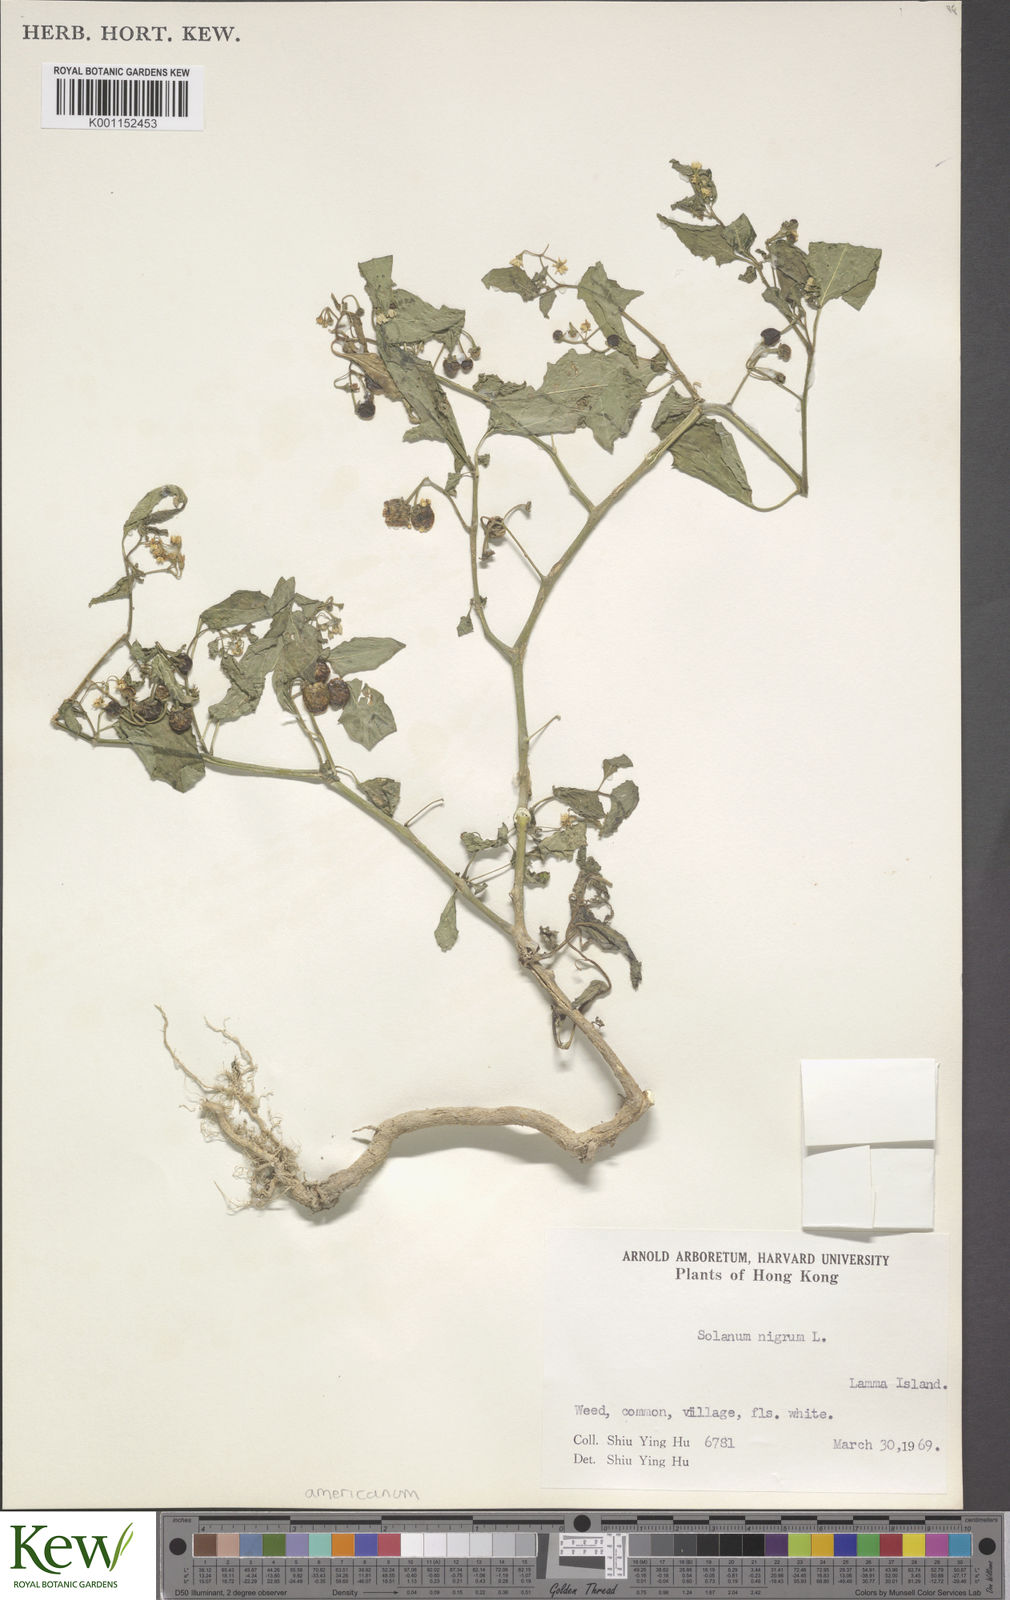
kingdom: Plantae
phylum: Tracheophyta
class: Magnoliopsida
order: Solanales
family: Solanaceae
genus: Solanum
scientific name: Solanum americanum
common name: American black nightshade
